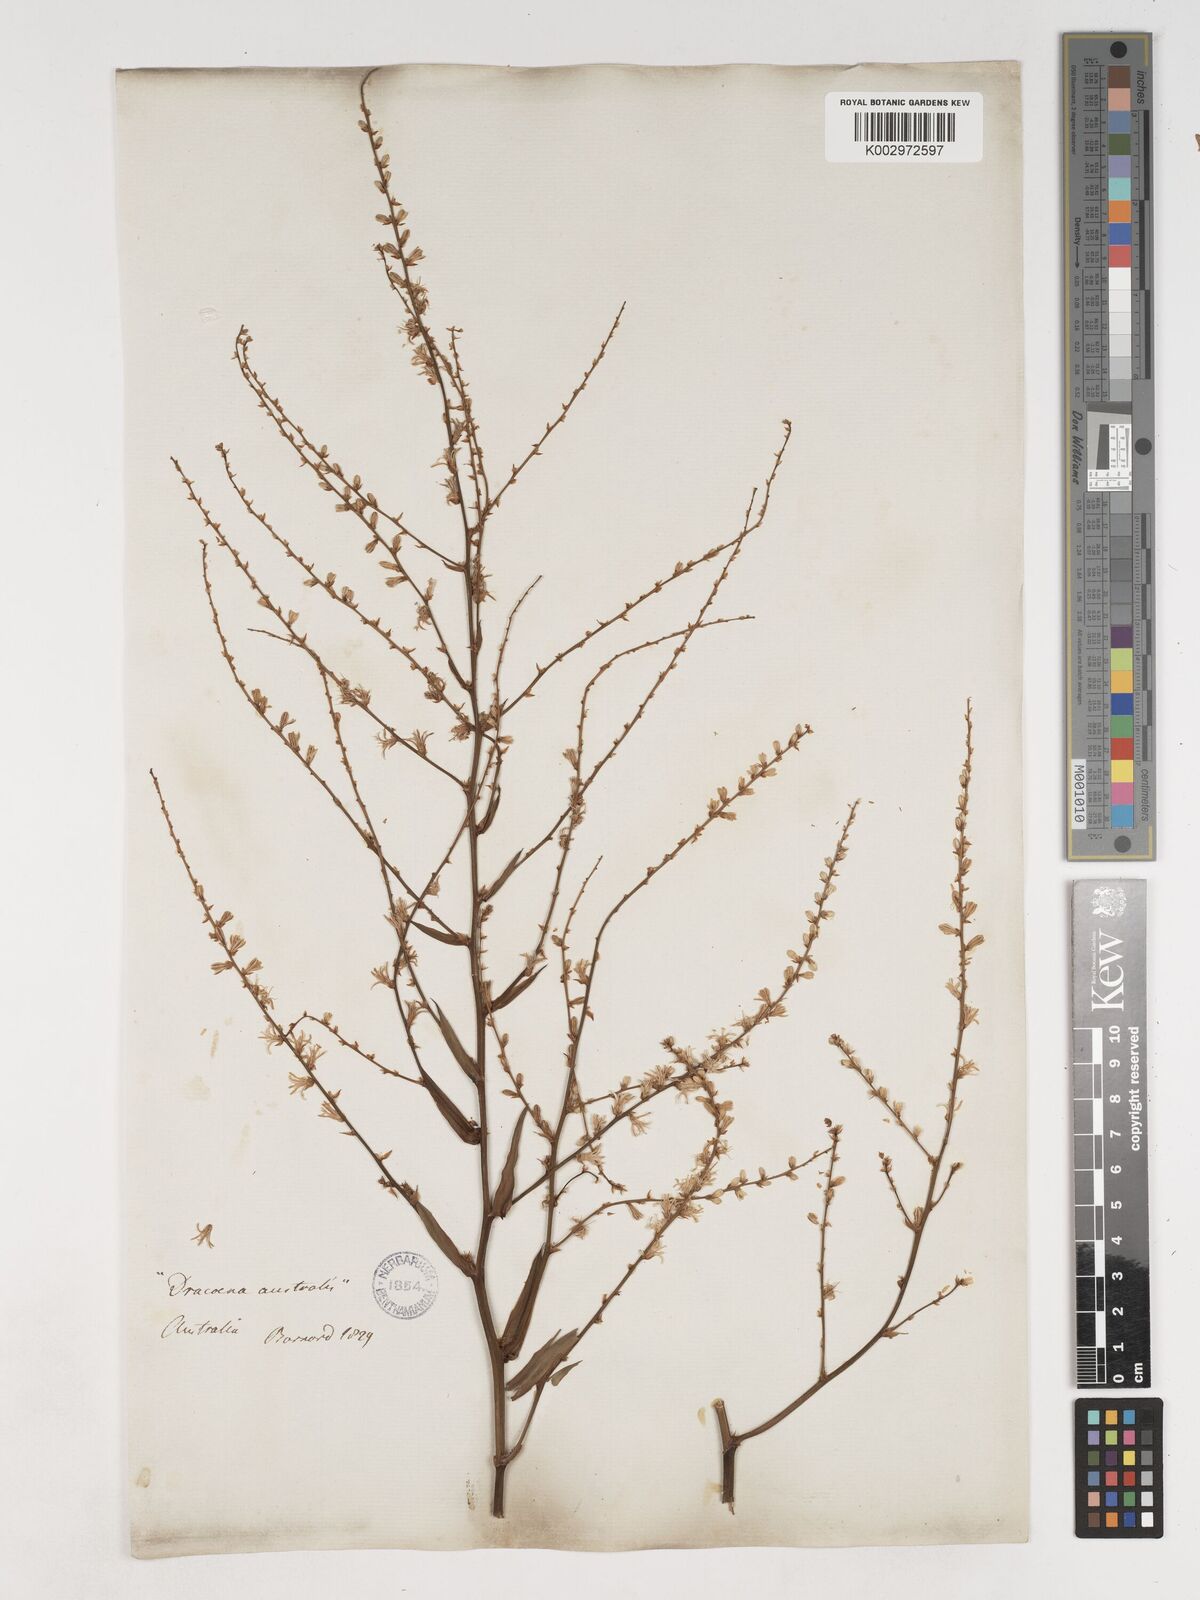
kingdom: Plantae
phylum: Tracheophyta
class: Liliopsida
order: Asparagales
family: Asparagaceae
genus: Cordyline
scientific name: Cordyline stricta
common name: Narrow-leaf palm-lily
